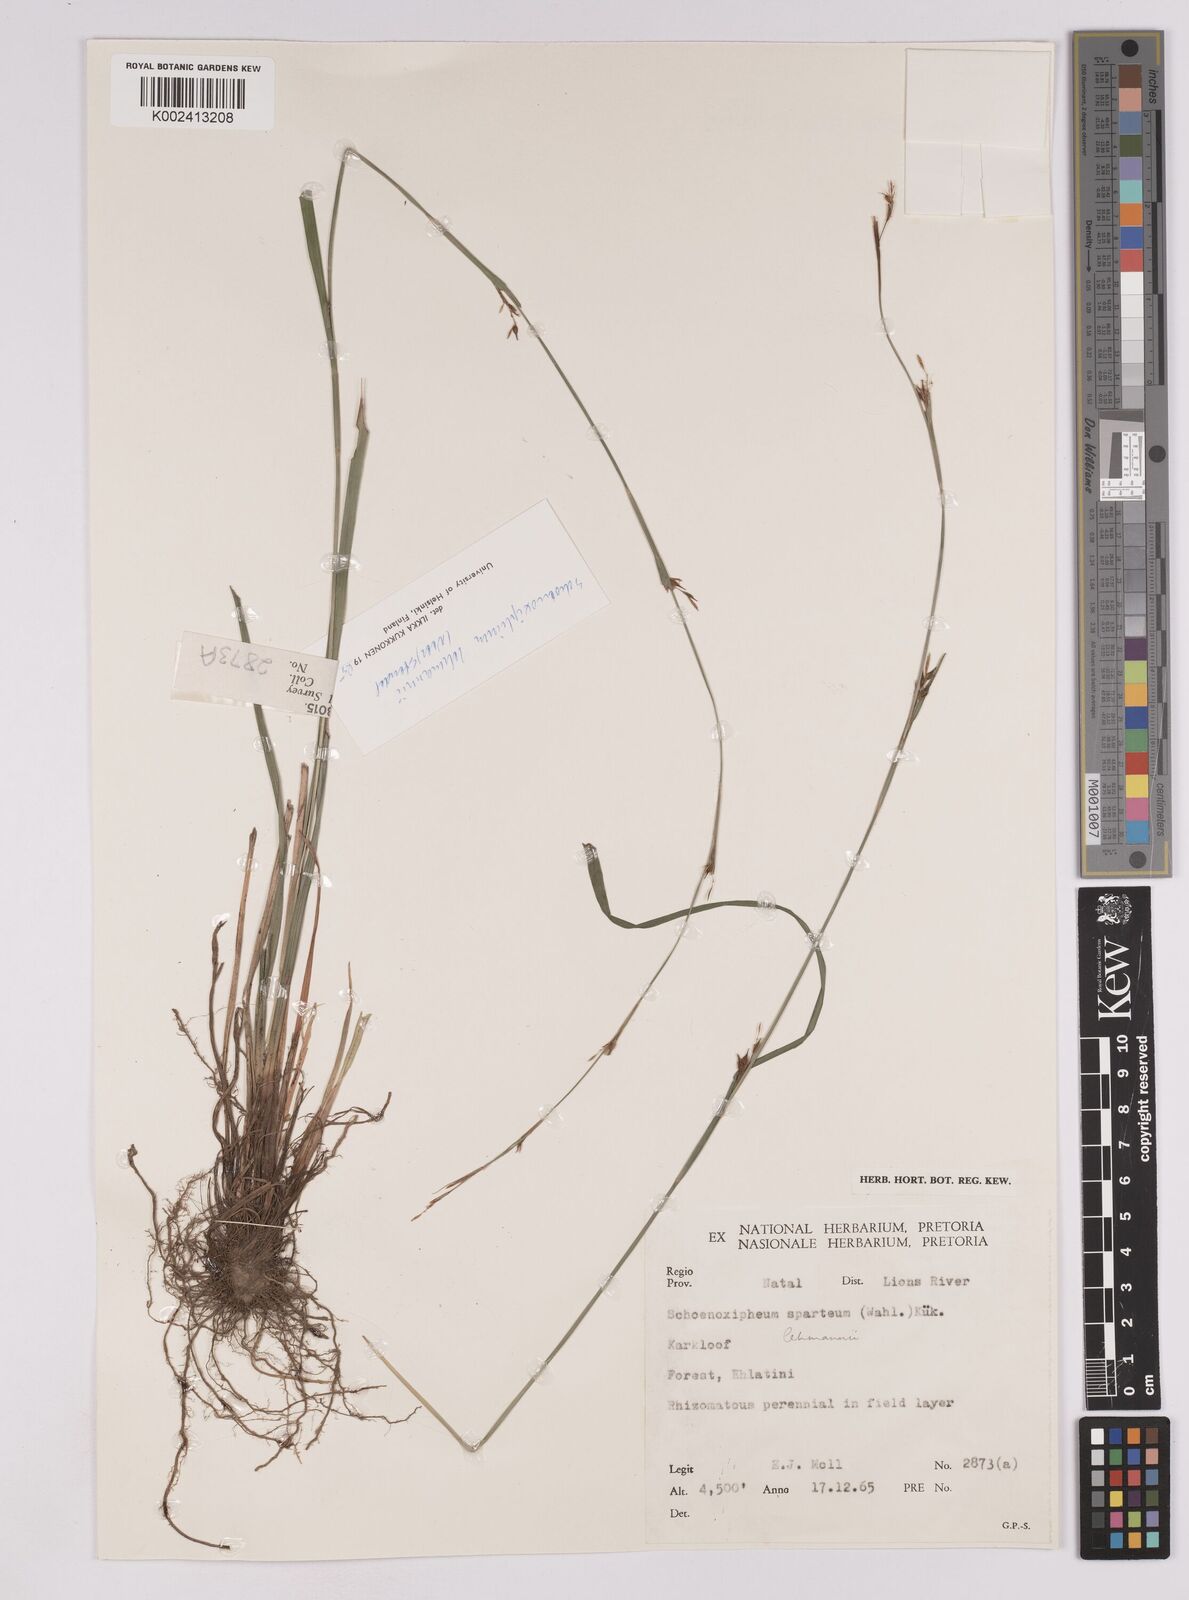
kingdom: Plantae
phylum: Tracheophyta
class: Liliopsida
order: Poales
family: Cyperaceae
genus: Carex
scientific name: Carex uhligii
